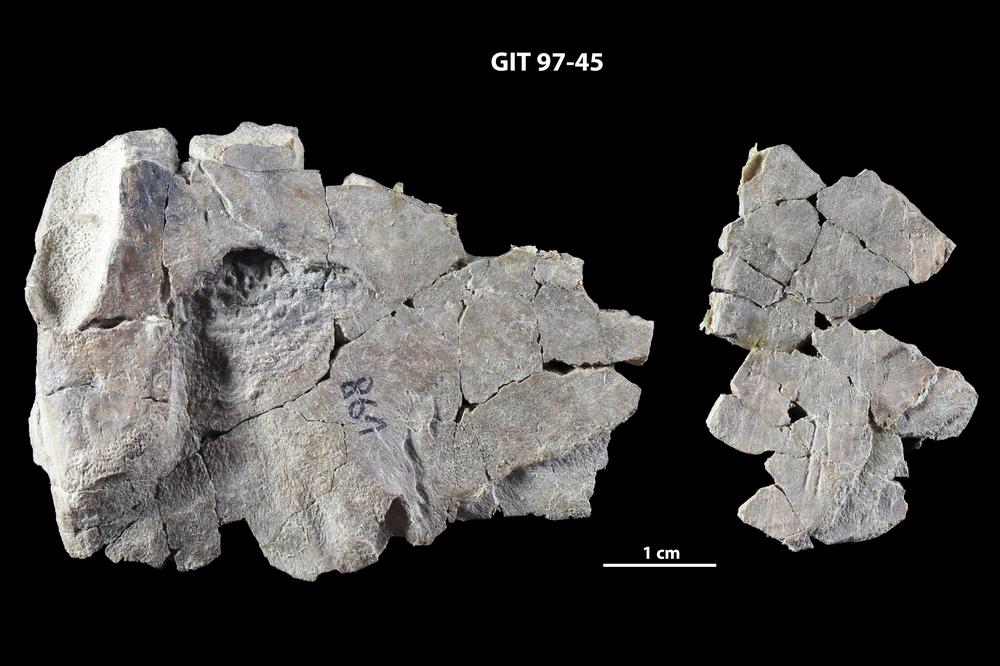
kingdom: Animalia
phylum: Chordata
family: Holonematidae
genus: Holonema
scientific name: Holonema
